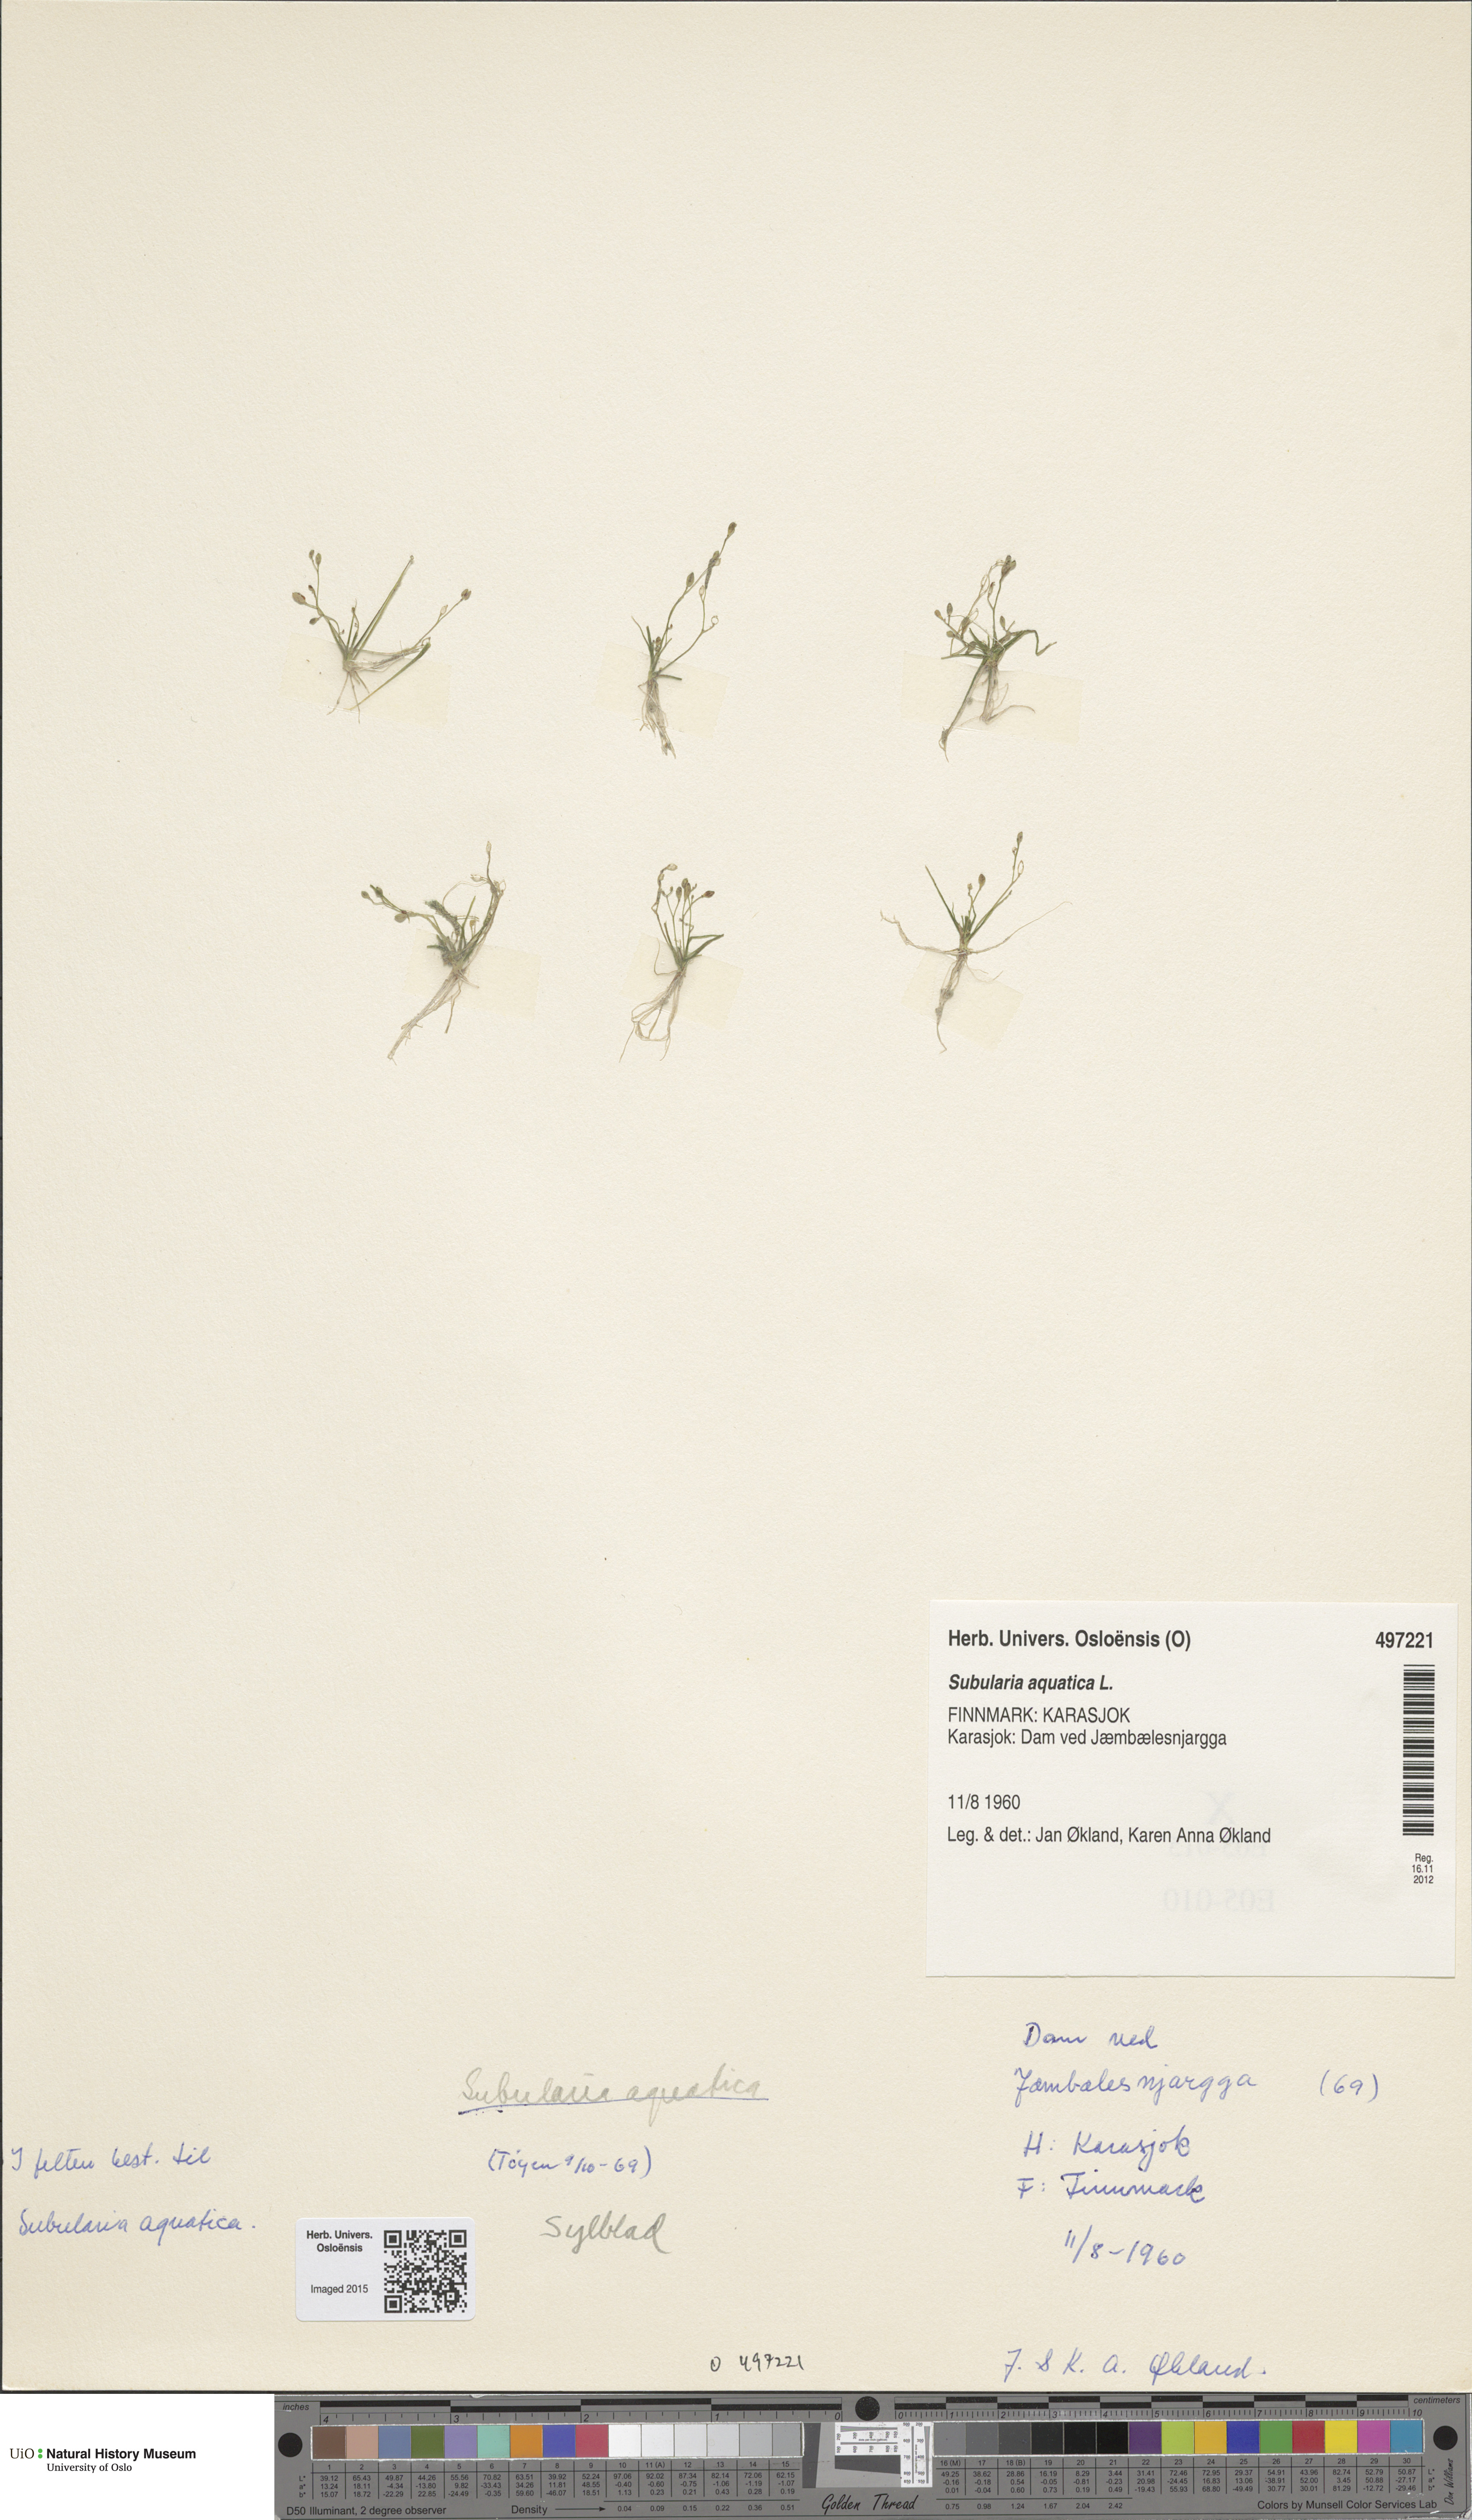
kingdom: Plantae
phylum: Tracheophyta
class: Magnoliopsida
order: Brassicales
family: Brassicaceae
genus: Subularia
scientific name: Subularia aquatica
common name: Awlwort
